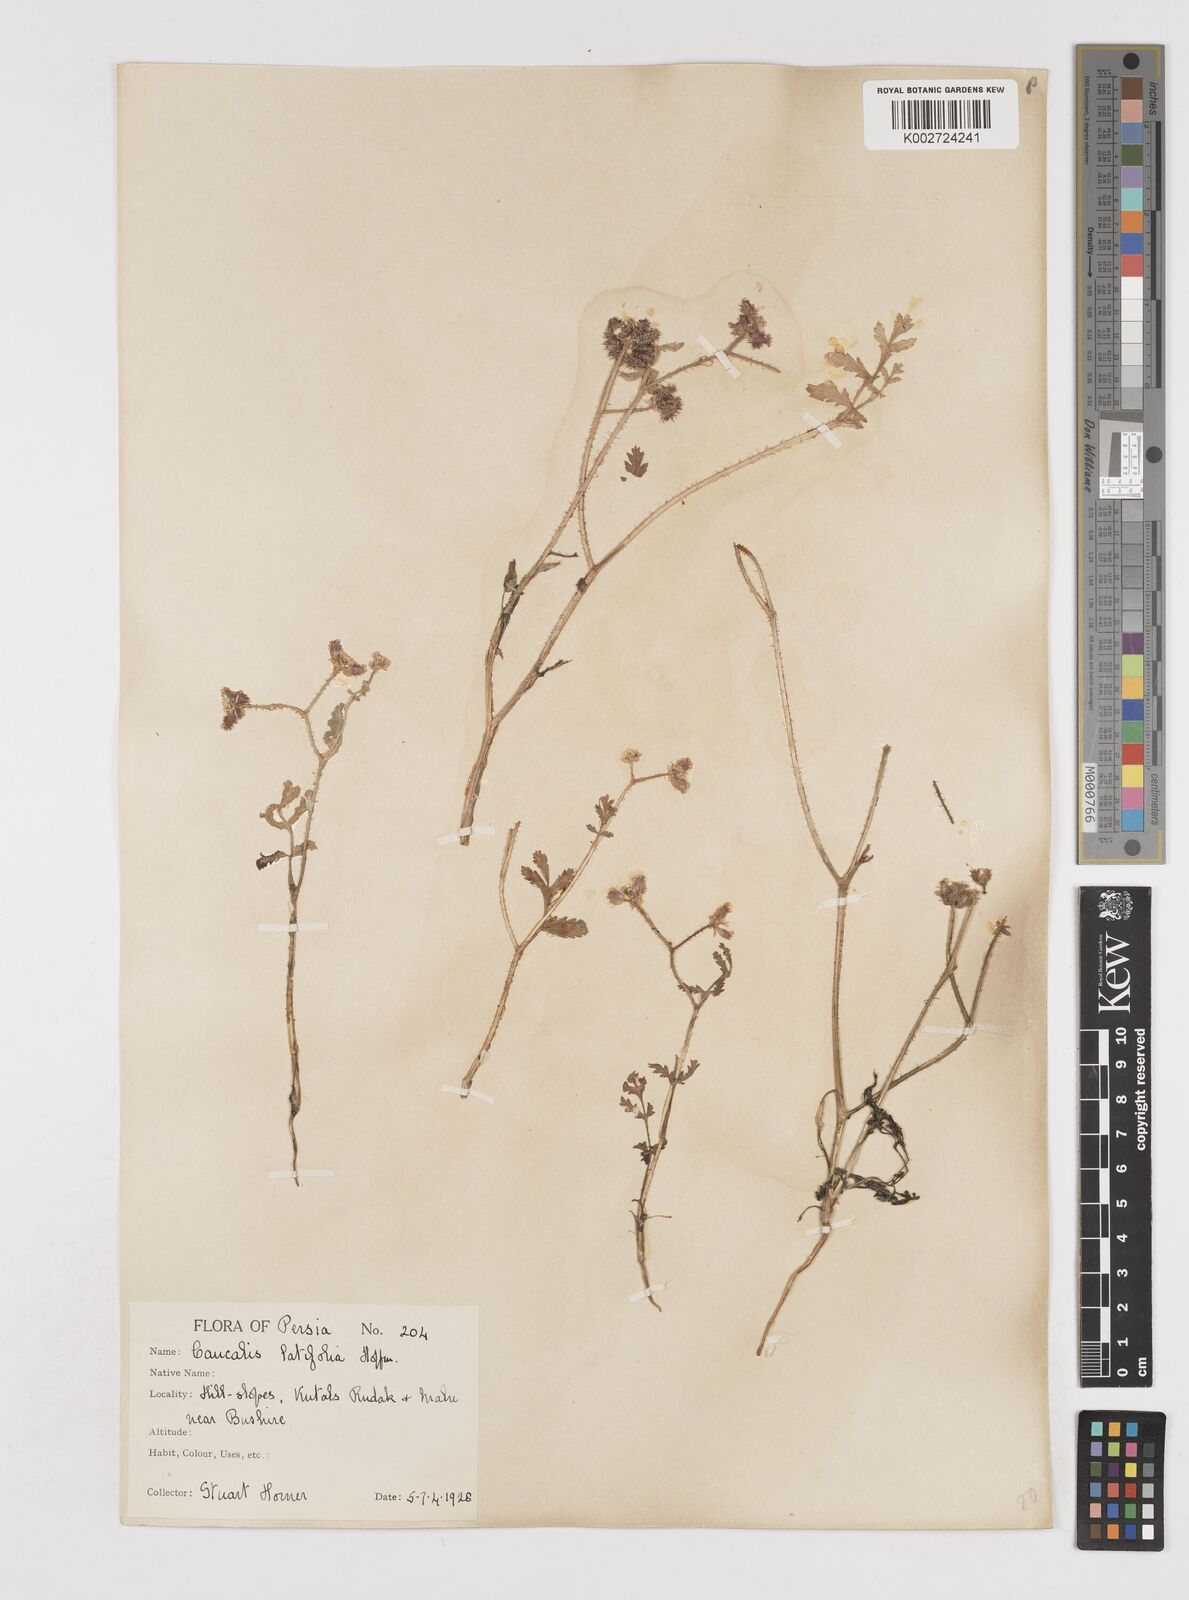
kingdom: Plantae
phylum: Tracheophyta
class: Magnoliopsida
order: Apiales
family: Apiaceae
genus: Turgenia
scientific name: Turgenia latifolia
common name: Greater bur-parsley
